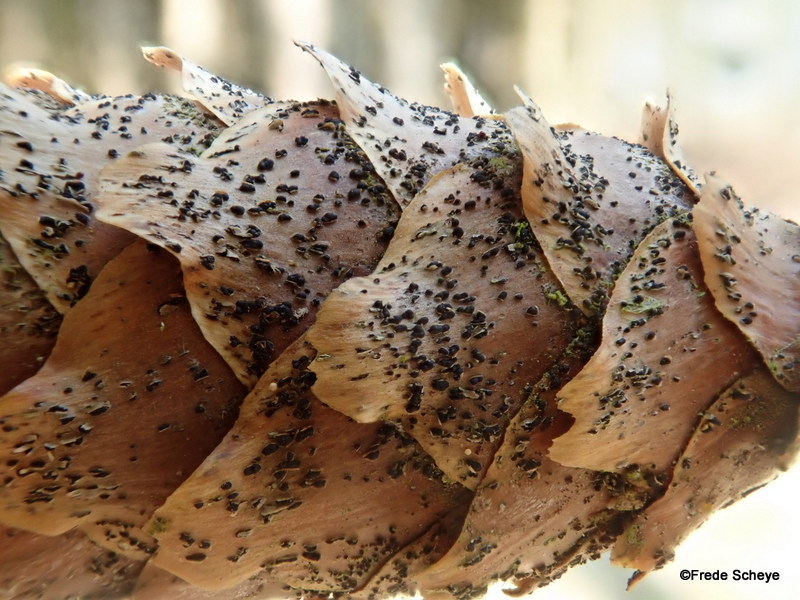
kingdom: Fungi
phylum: Ascomycota
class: Sordariomycetes
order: Diaporthales
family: Gnomoniaceae
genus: Sirococcus
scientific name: Sirococcus conigenus
